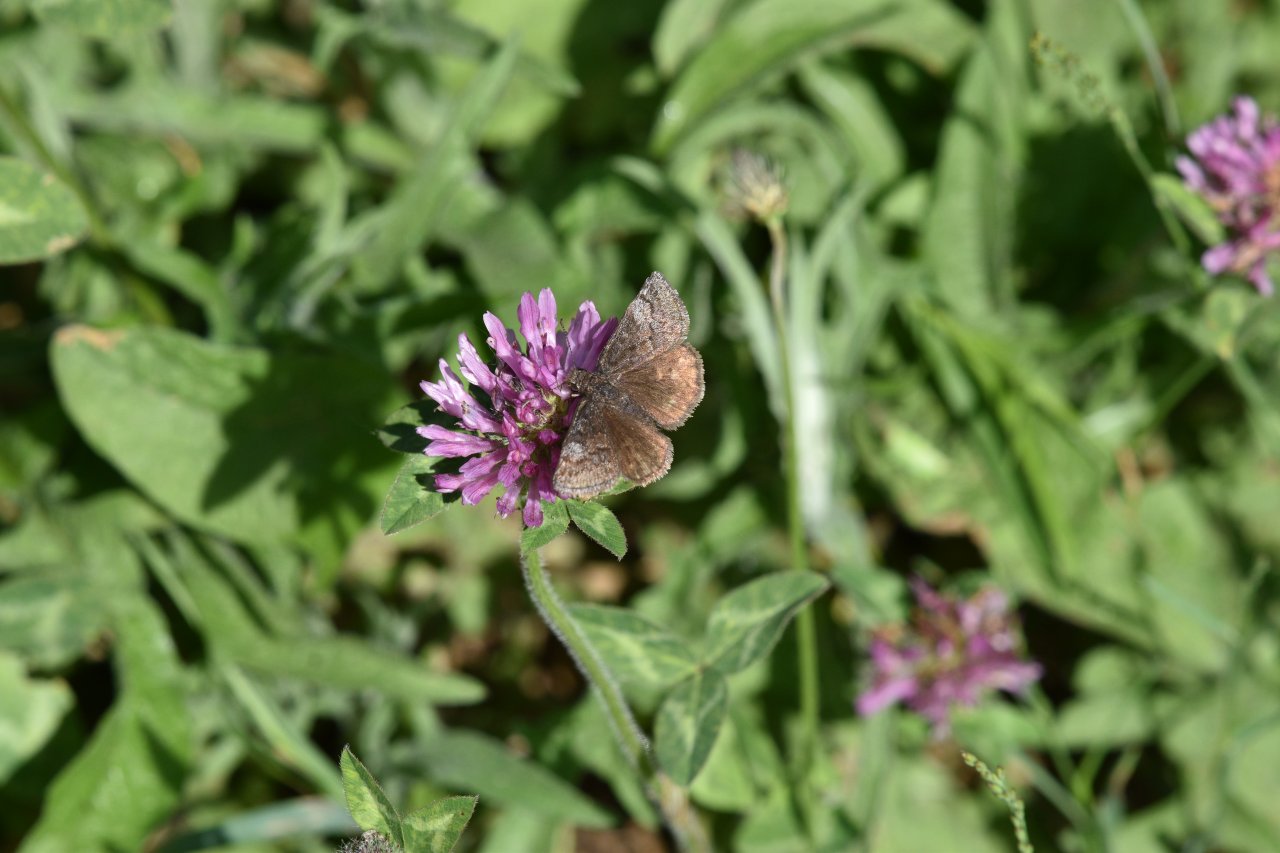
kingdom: Animalia
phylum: Arthropoda
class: Insecta
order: Lepidoptera
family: Hesperiidae
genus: Erynnis
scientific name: Erynnis icelus
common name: Dreamy Duskywing
